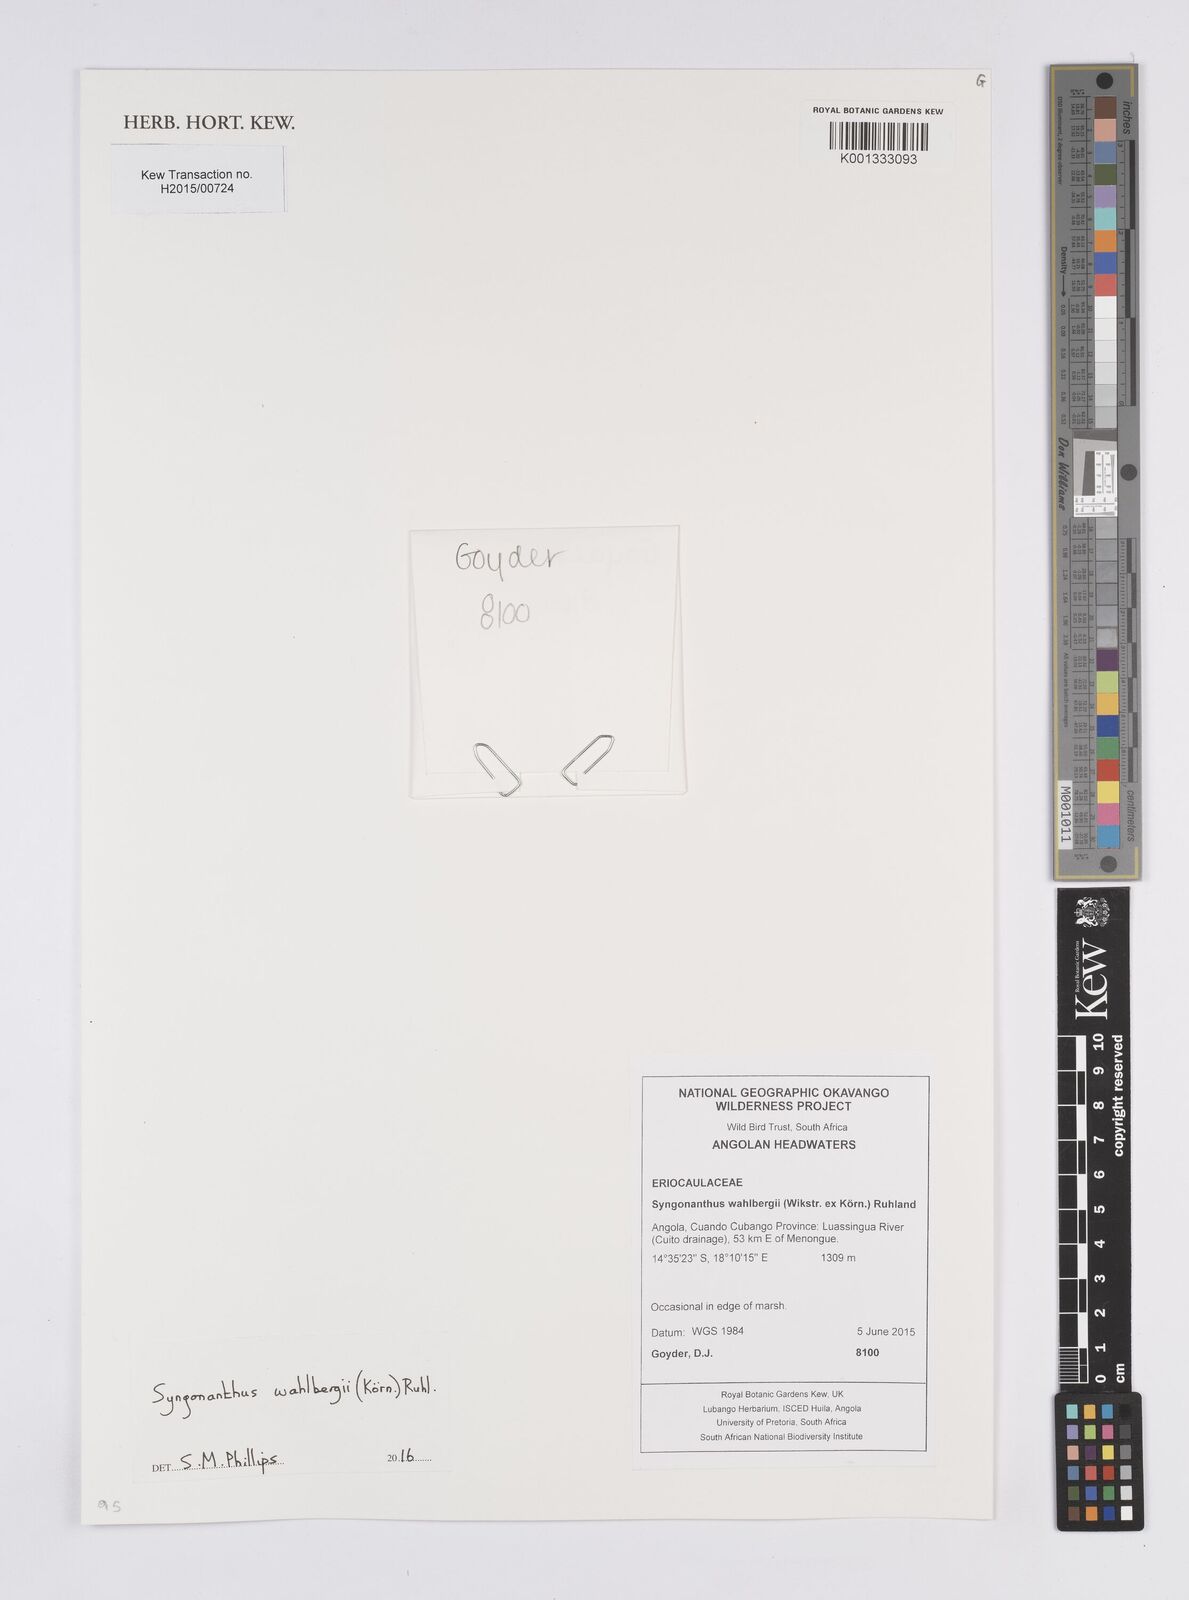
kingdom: Plantae
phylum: Tracheophyta
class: Liliopsida
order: Poales
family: Eriocaulaceae
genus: Syngonanthus
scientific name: Syngonanthus wahlbergii
